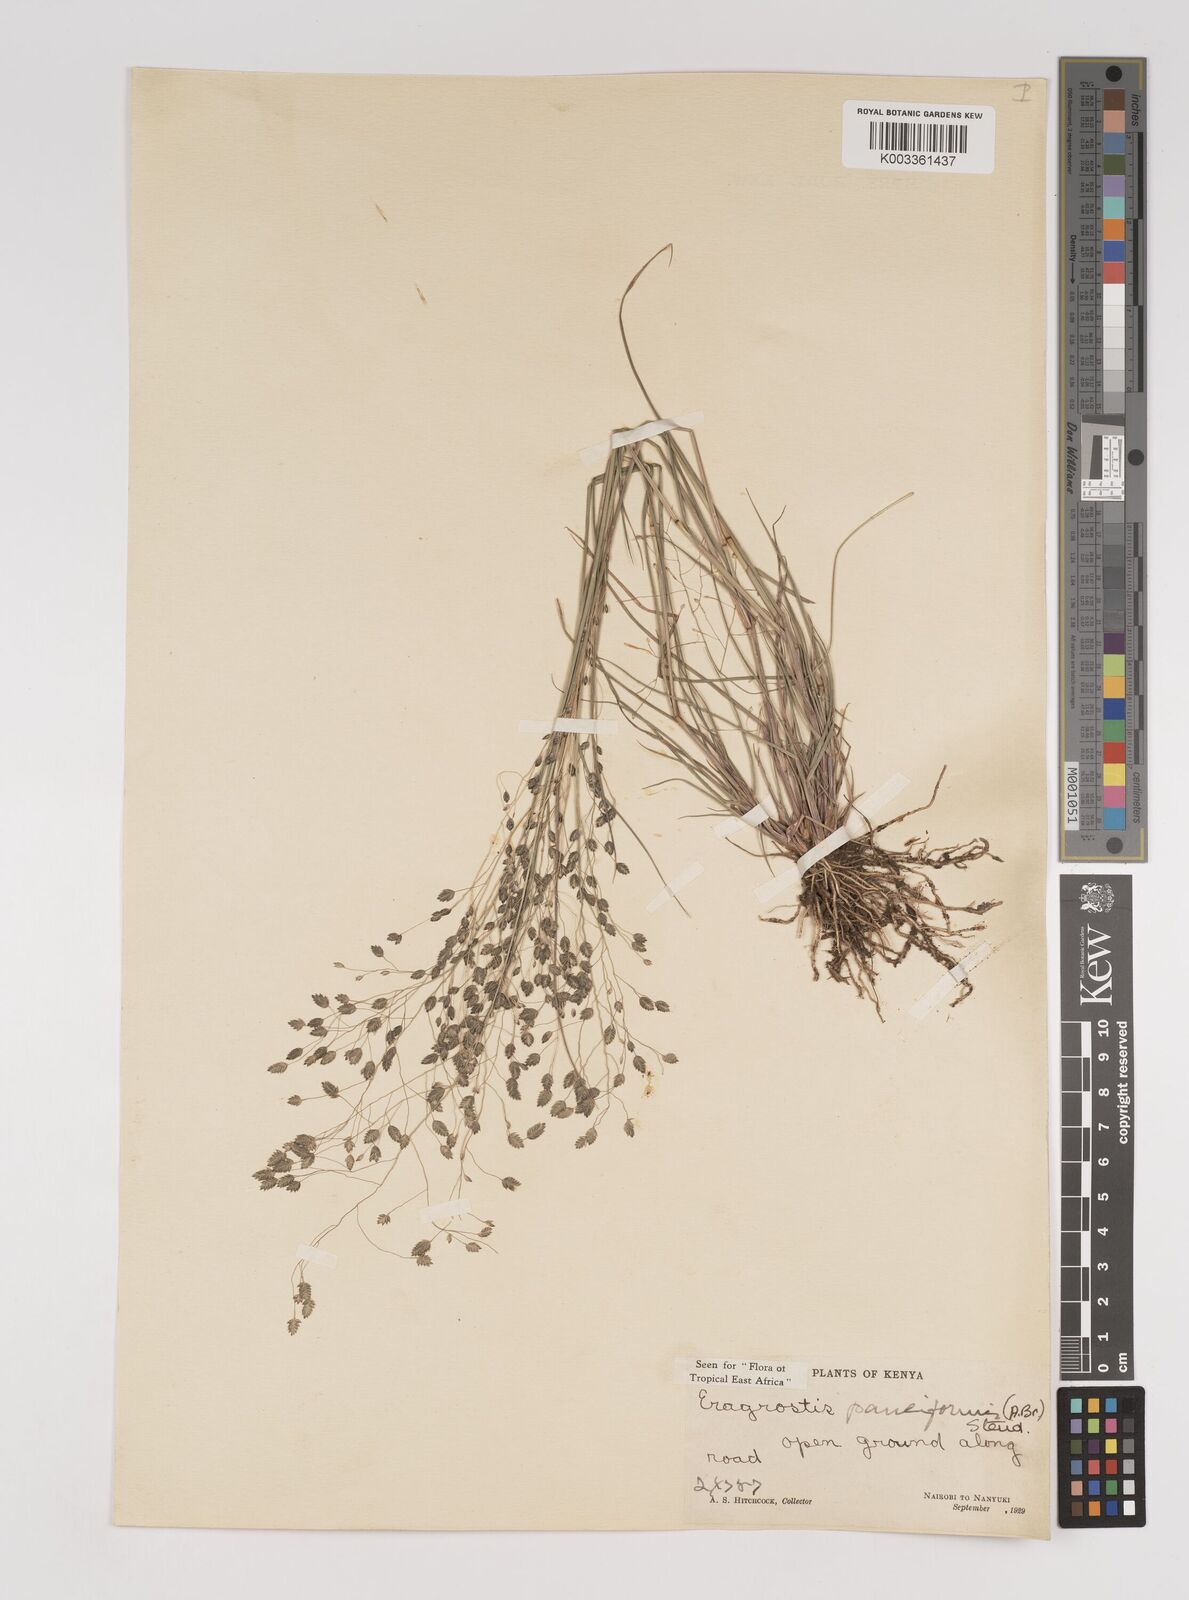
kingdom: Plantae
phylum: Tracheophyta
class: Liliopsida
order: Poales
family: Poaceae
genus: Eragrostis
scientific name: Eragrostis paniciformis
